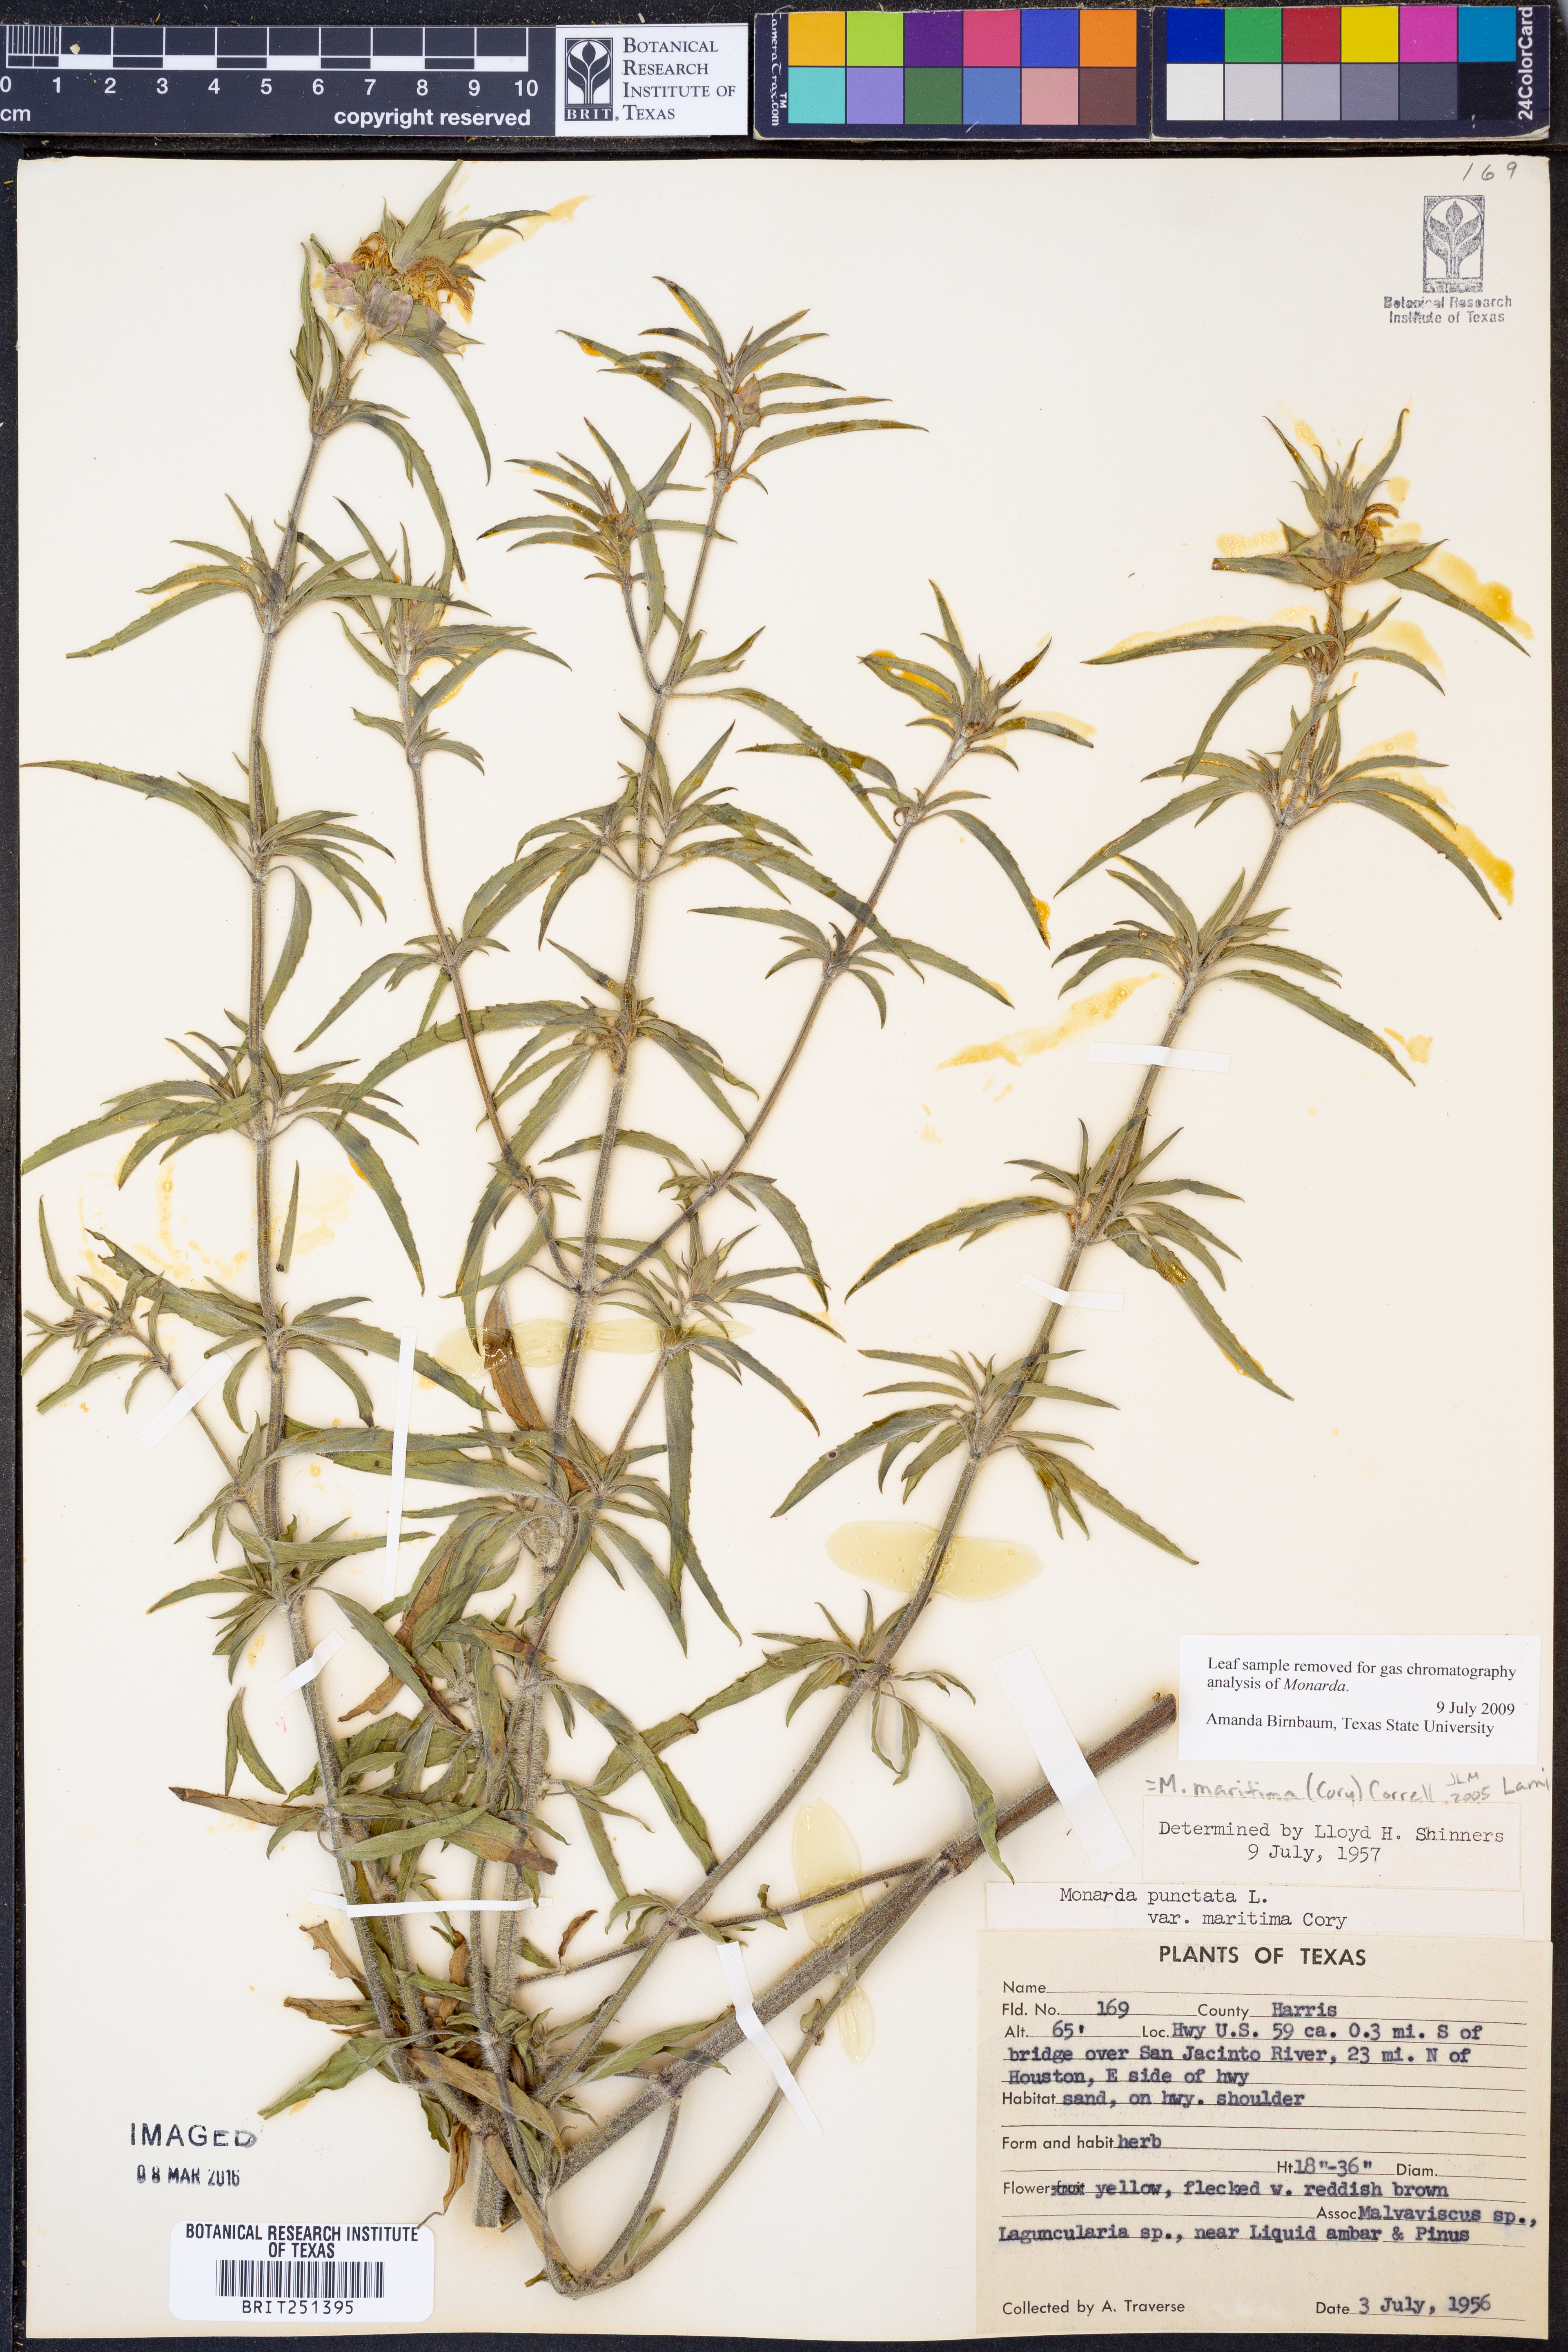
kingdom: Plantae
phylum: Tracheophyta
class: Magnoliopsida
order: Lamiales
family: Lamiaceae
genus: Monarda
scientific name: Monarda maritima
